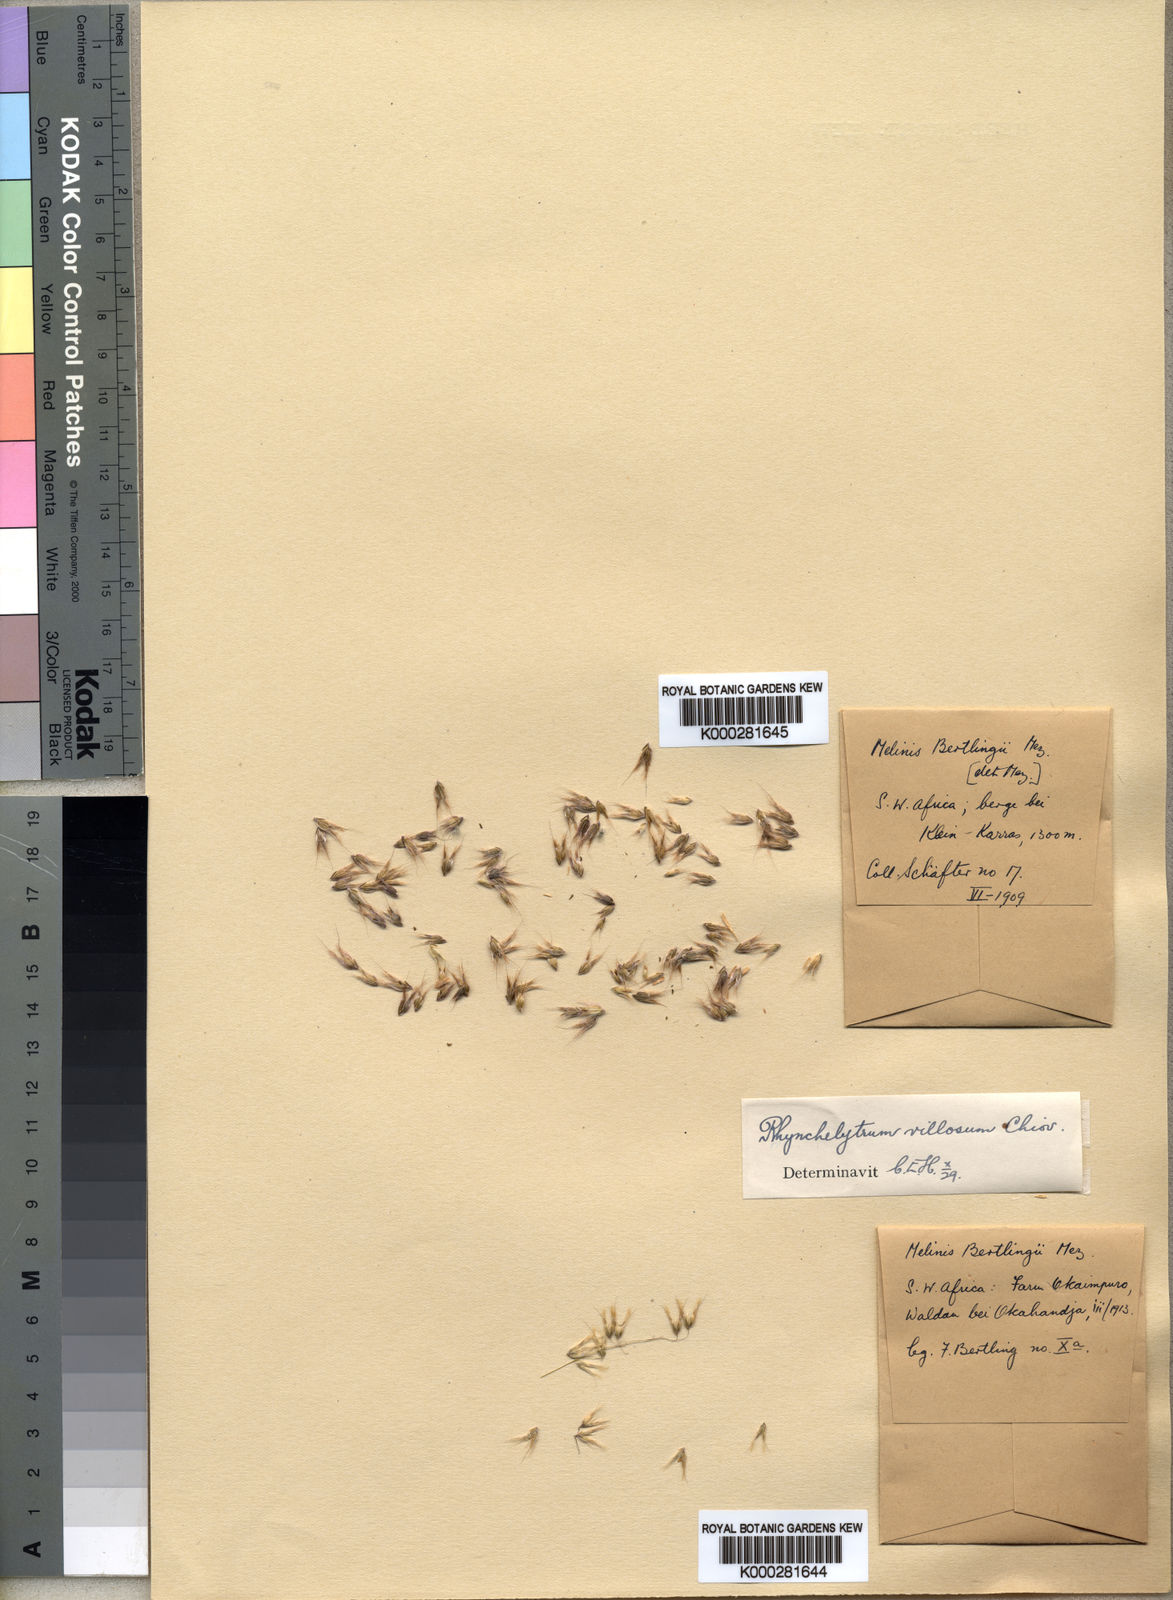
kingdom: Plantae
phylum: Tracheophyta
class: Liliopsida
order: Poales
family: Poaceae
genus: Melinis
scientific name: Melinis repens
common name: Rose natal grass
